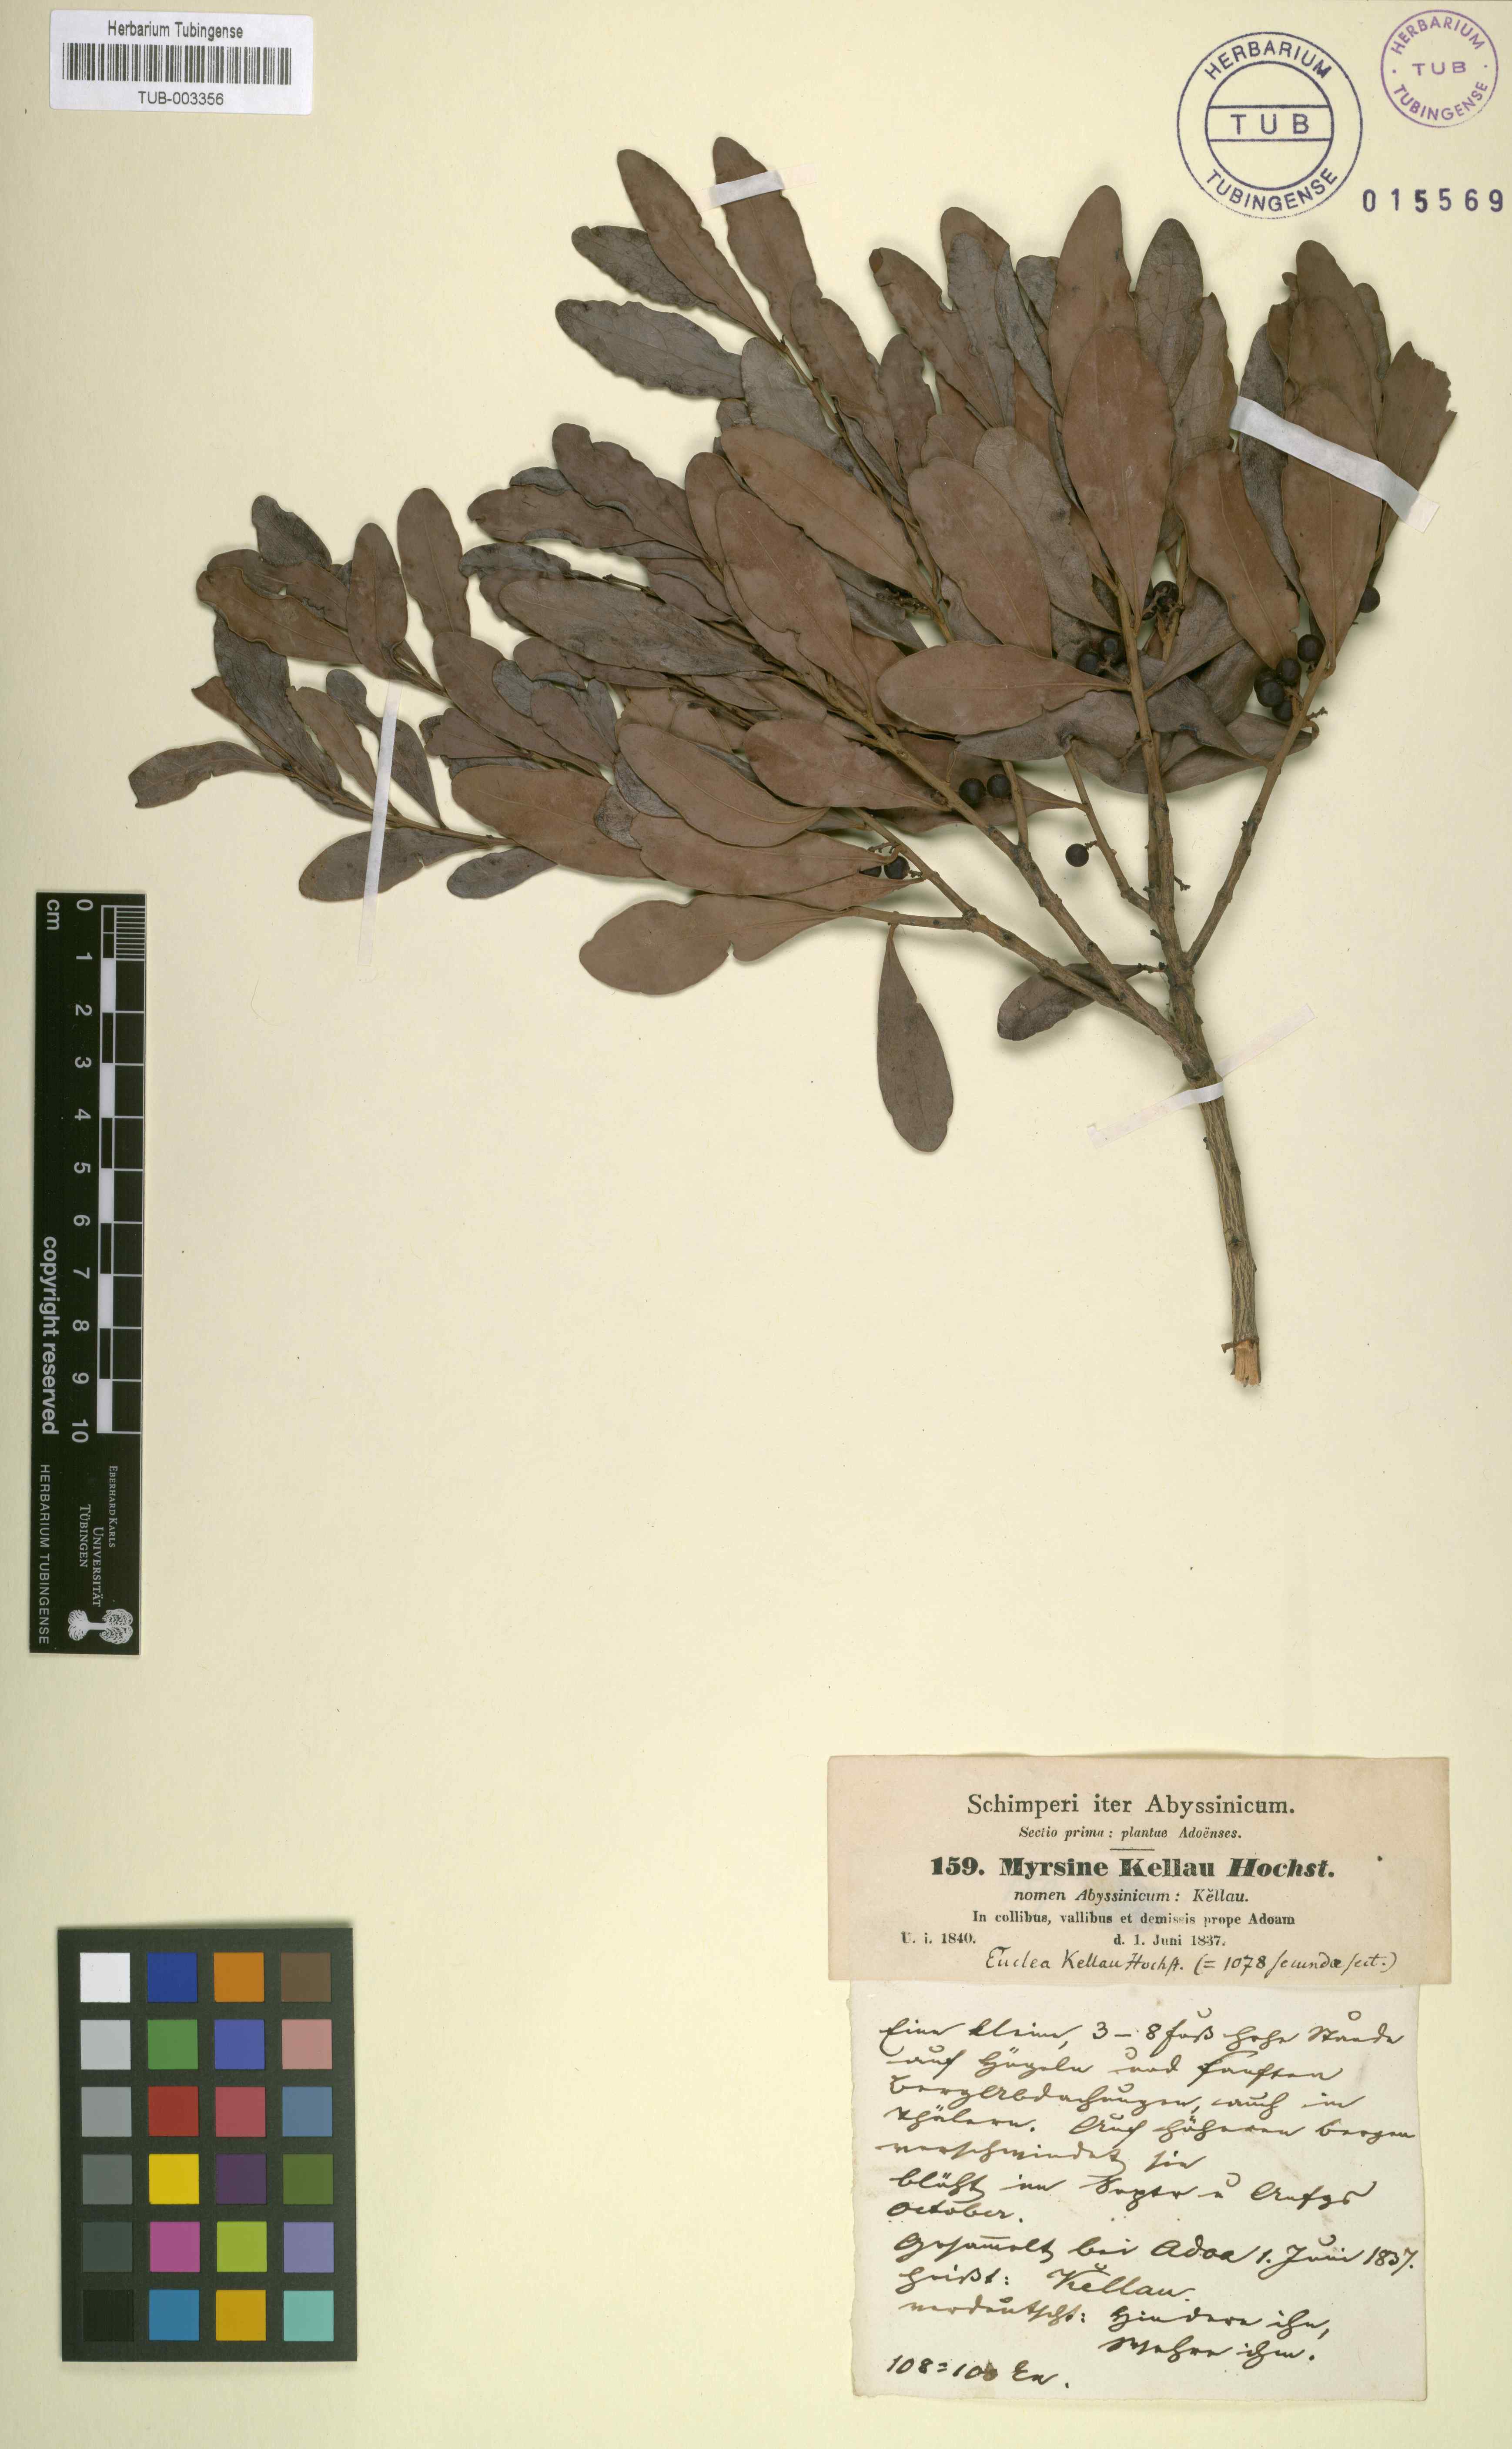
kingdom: Plantae
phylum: Tracheophyta
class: Magnoliopsida
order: Ericales
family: Ebenaceae
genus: Euclea
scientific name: Euclea racemosa
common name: Dune guarri
